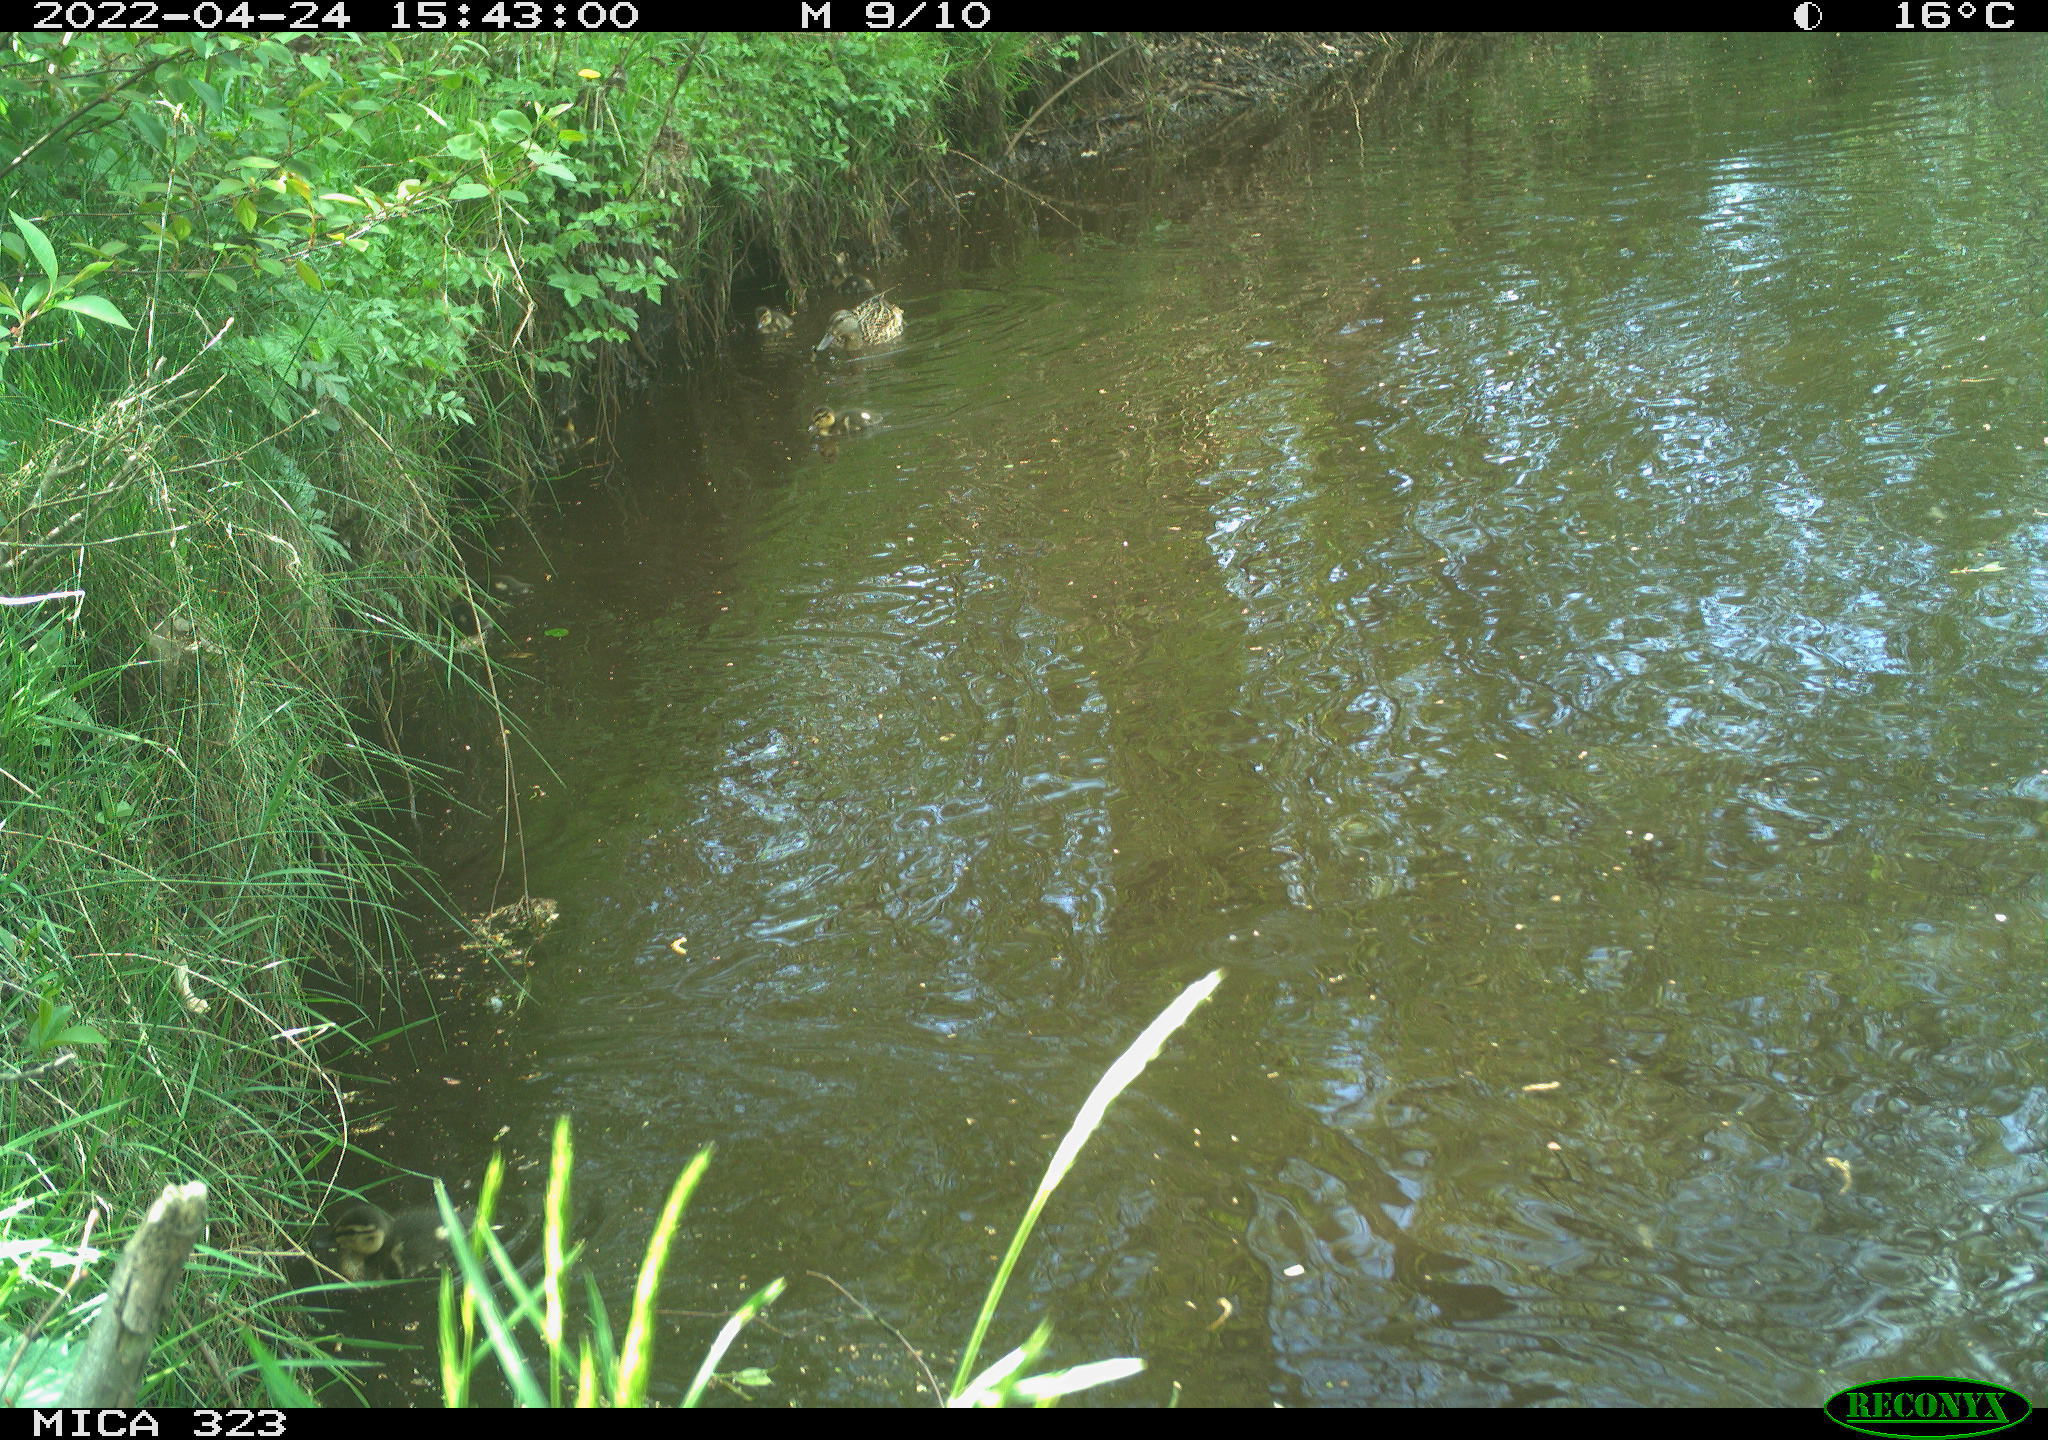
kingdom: Animalia
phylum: Chordata
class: Aves
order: Anseriformes
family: Anatidae
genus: Anas
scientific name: Anas platyrhynchos
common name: Mallard
